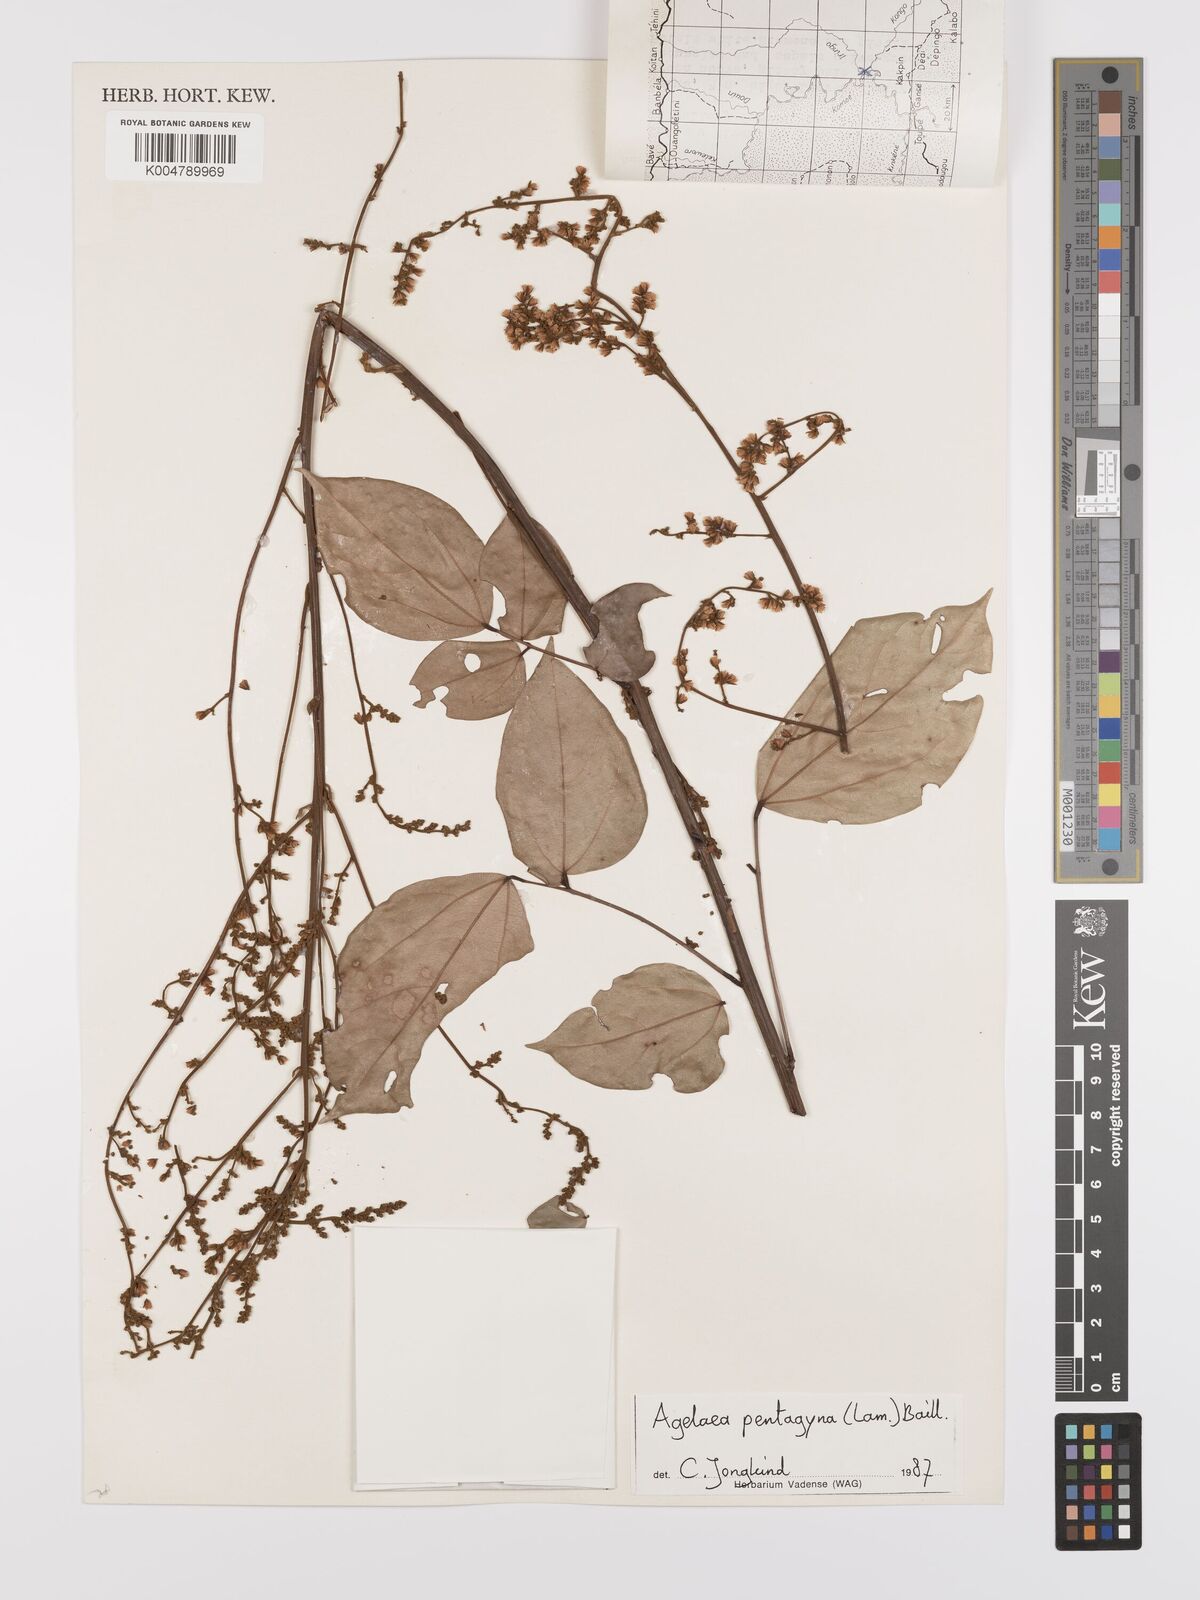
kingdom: Plantae
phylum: Tracheophyta
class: Magnoliopsida
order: Oxalidales
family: Connaraceae
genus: Agelaea
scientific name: Agelaea pentagyna
